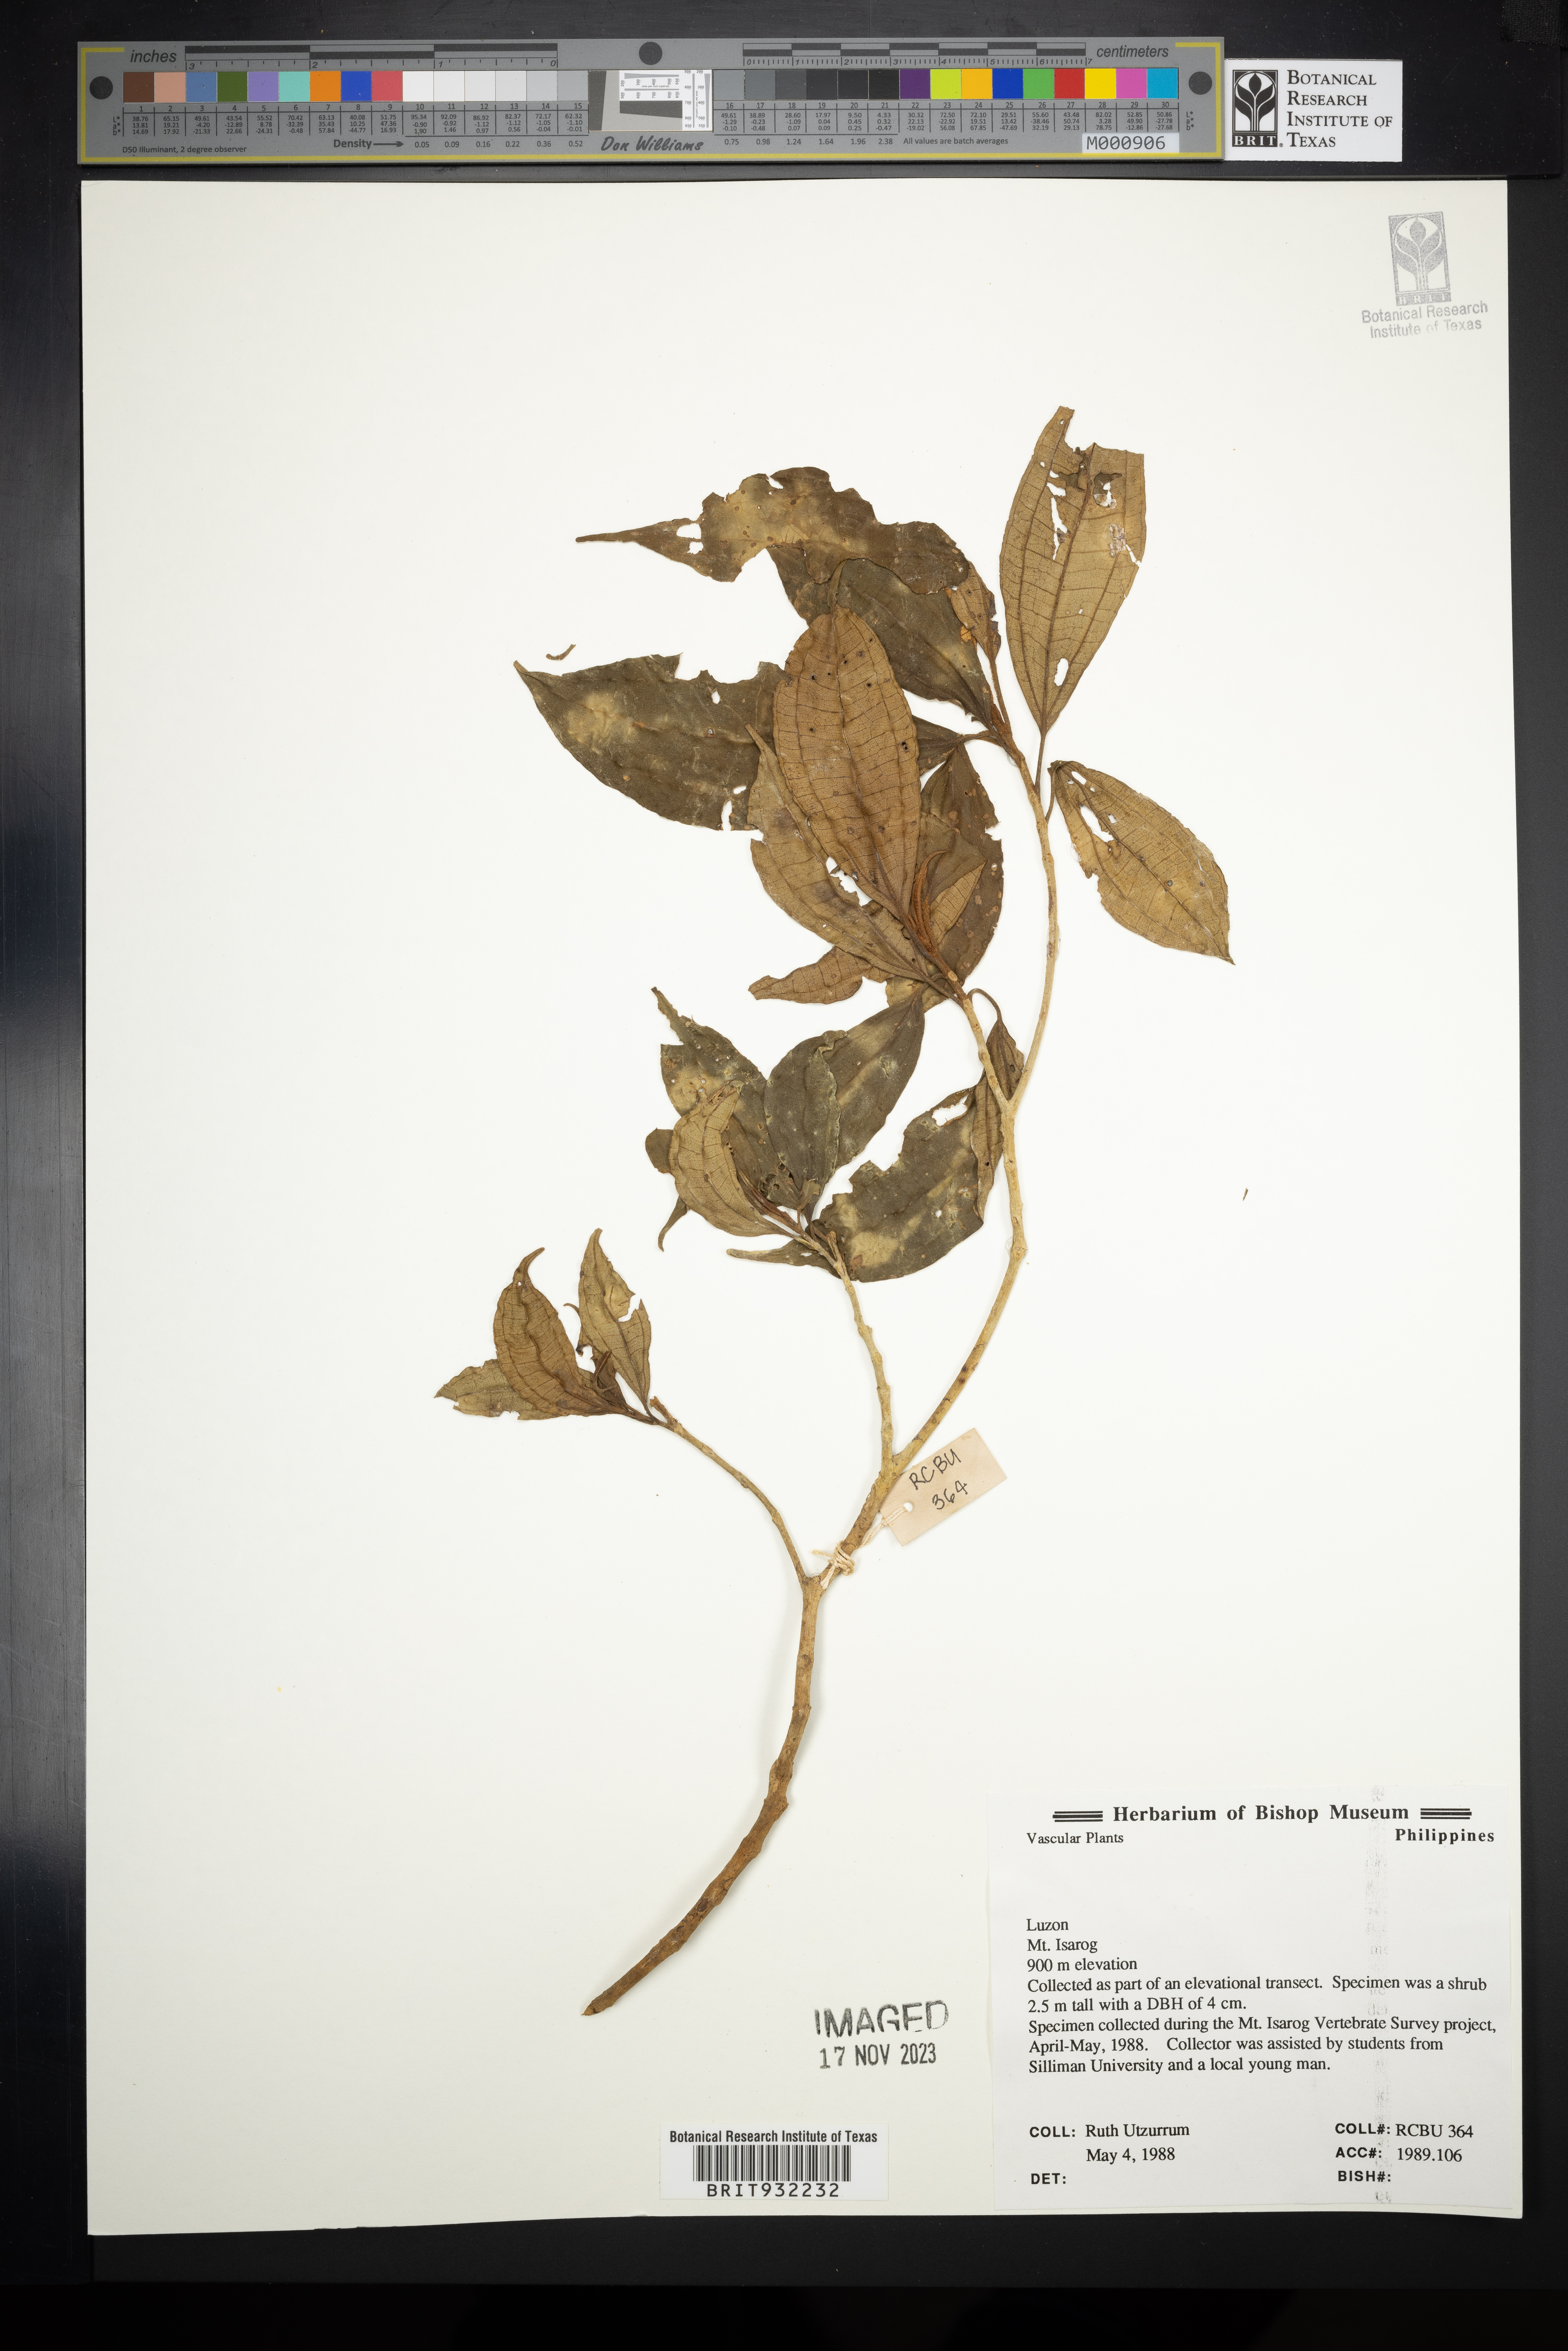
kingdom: Plantae
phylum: Tracheophyta
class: Magnoliopsida
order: Myrtales
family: Melastomataceae
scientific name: Melastomataceae
